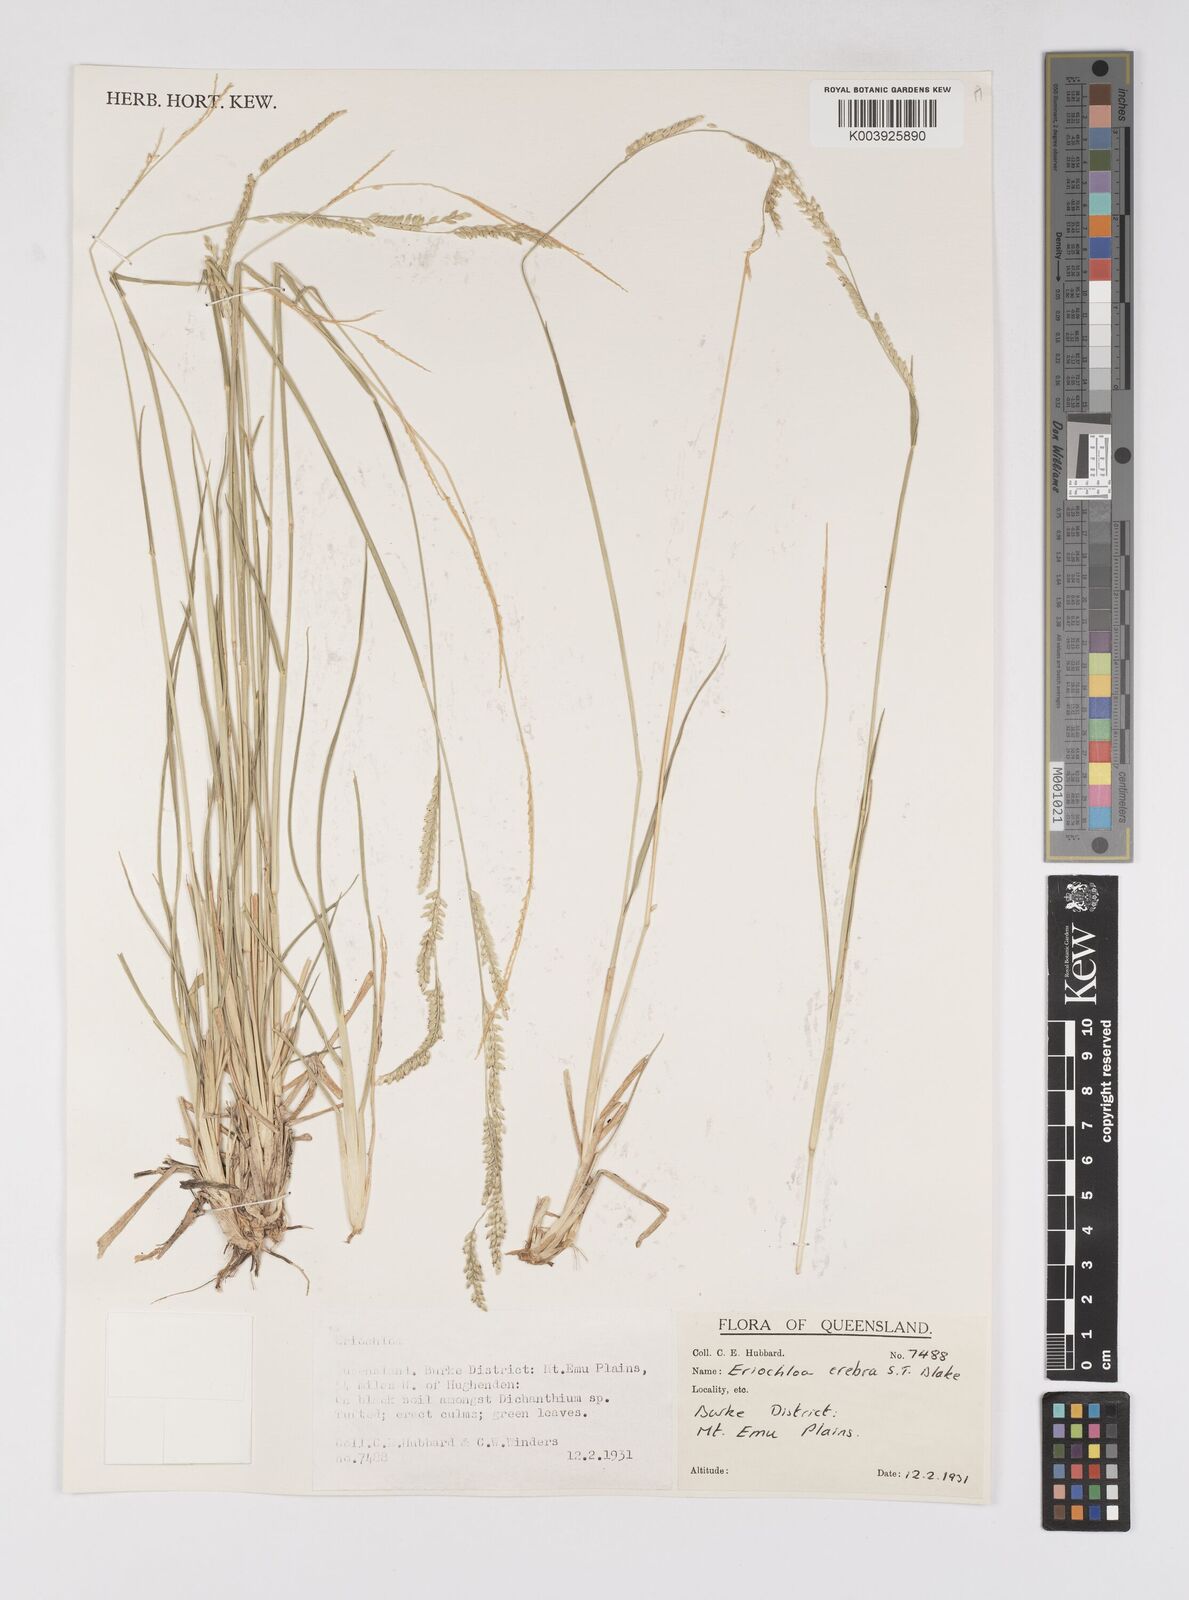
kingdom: Plantae
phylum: Tracheophyta
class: Liliopsida
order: Poales
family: Poaceae
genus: Eriochloa
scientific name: Eriochloa crebra
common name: Cup grass
